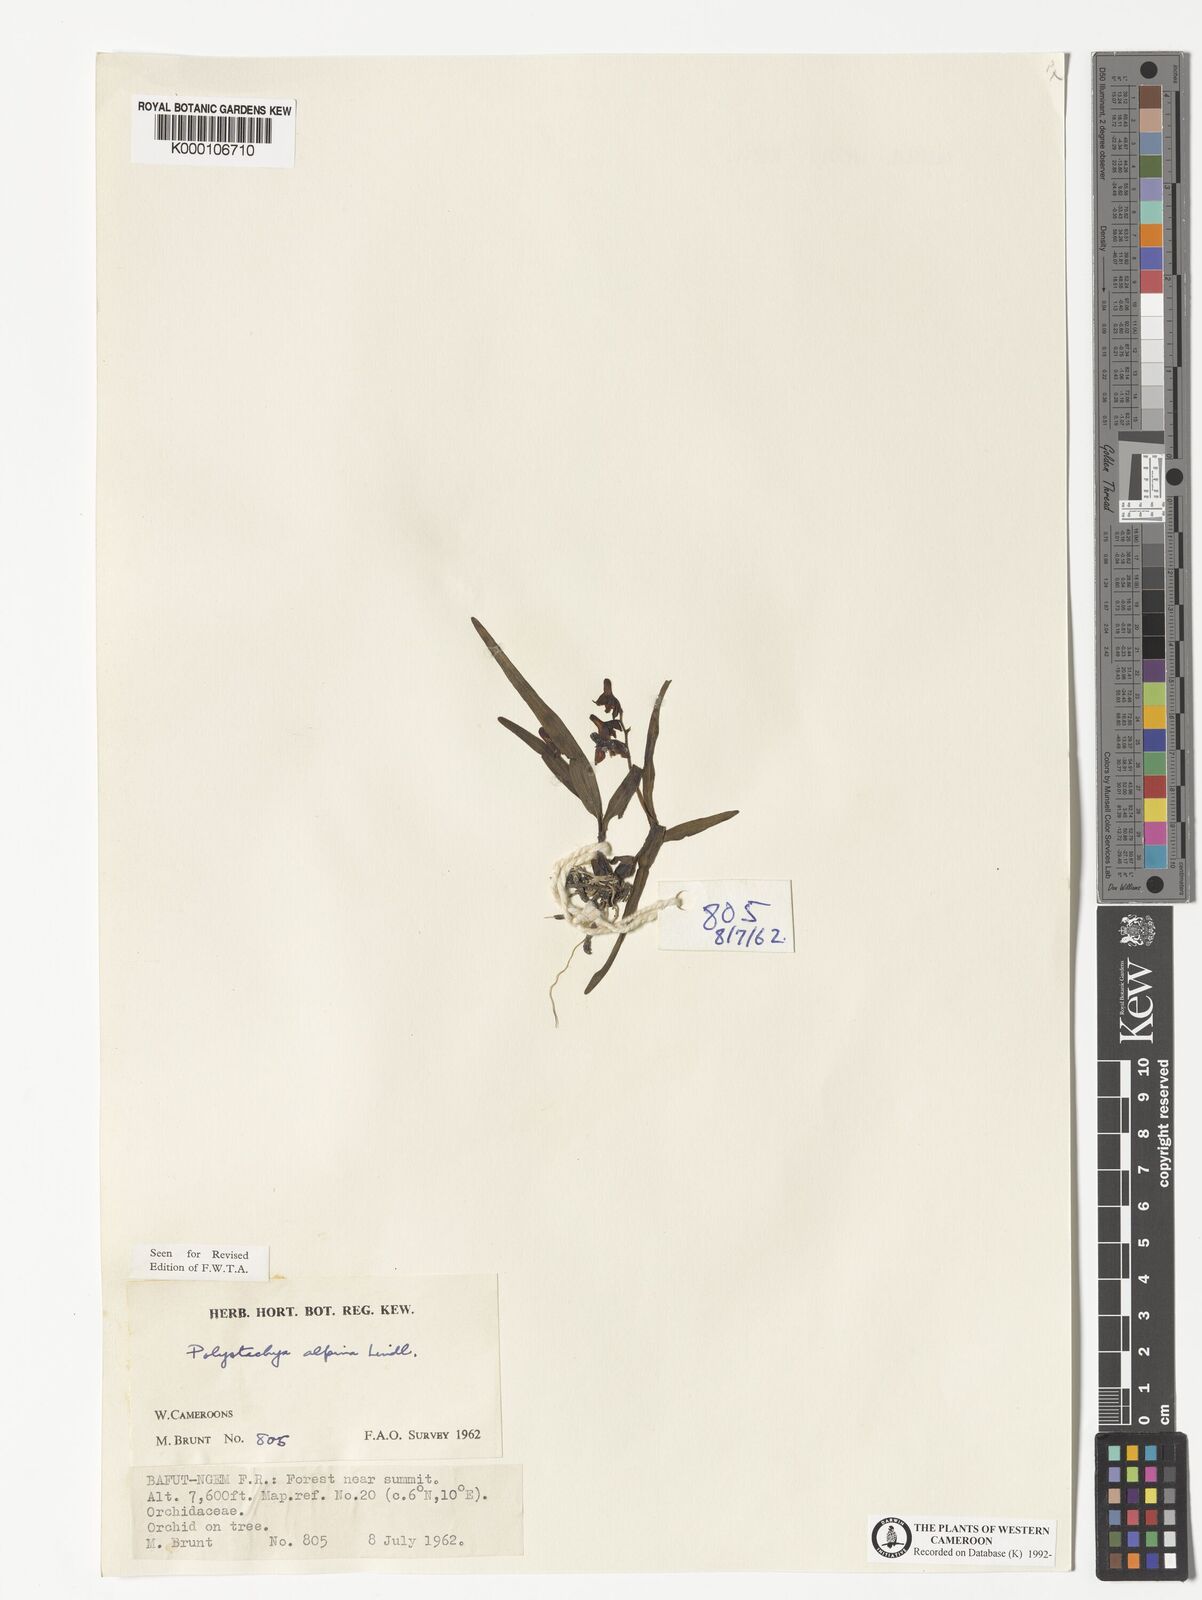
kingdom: Plantae
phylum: Tracheophyta
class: Liliopsida
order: Asparagales
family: Orchidaceae
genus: Polystachya
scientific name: Polystachya alpina
